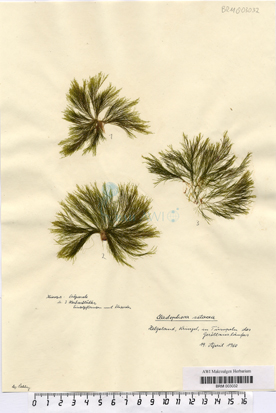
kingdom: Plantae
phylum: Chlorophyta
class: Ulvophyceae
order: Cladophorales
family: Cladophoraceae
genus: Cladophora
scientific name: Cladophora
